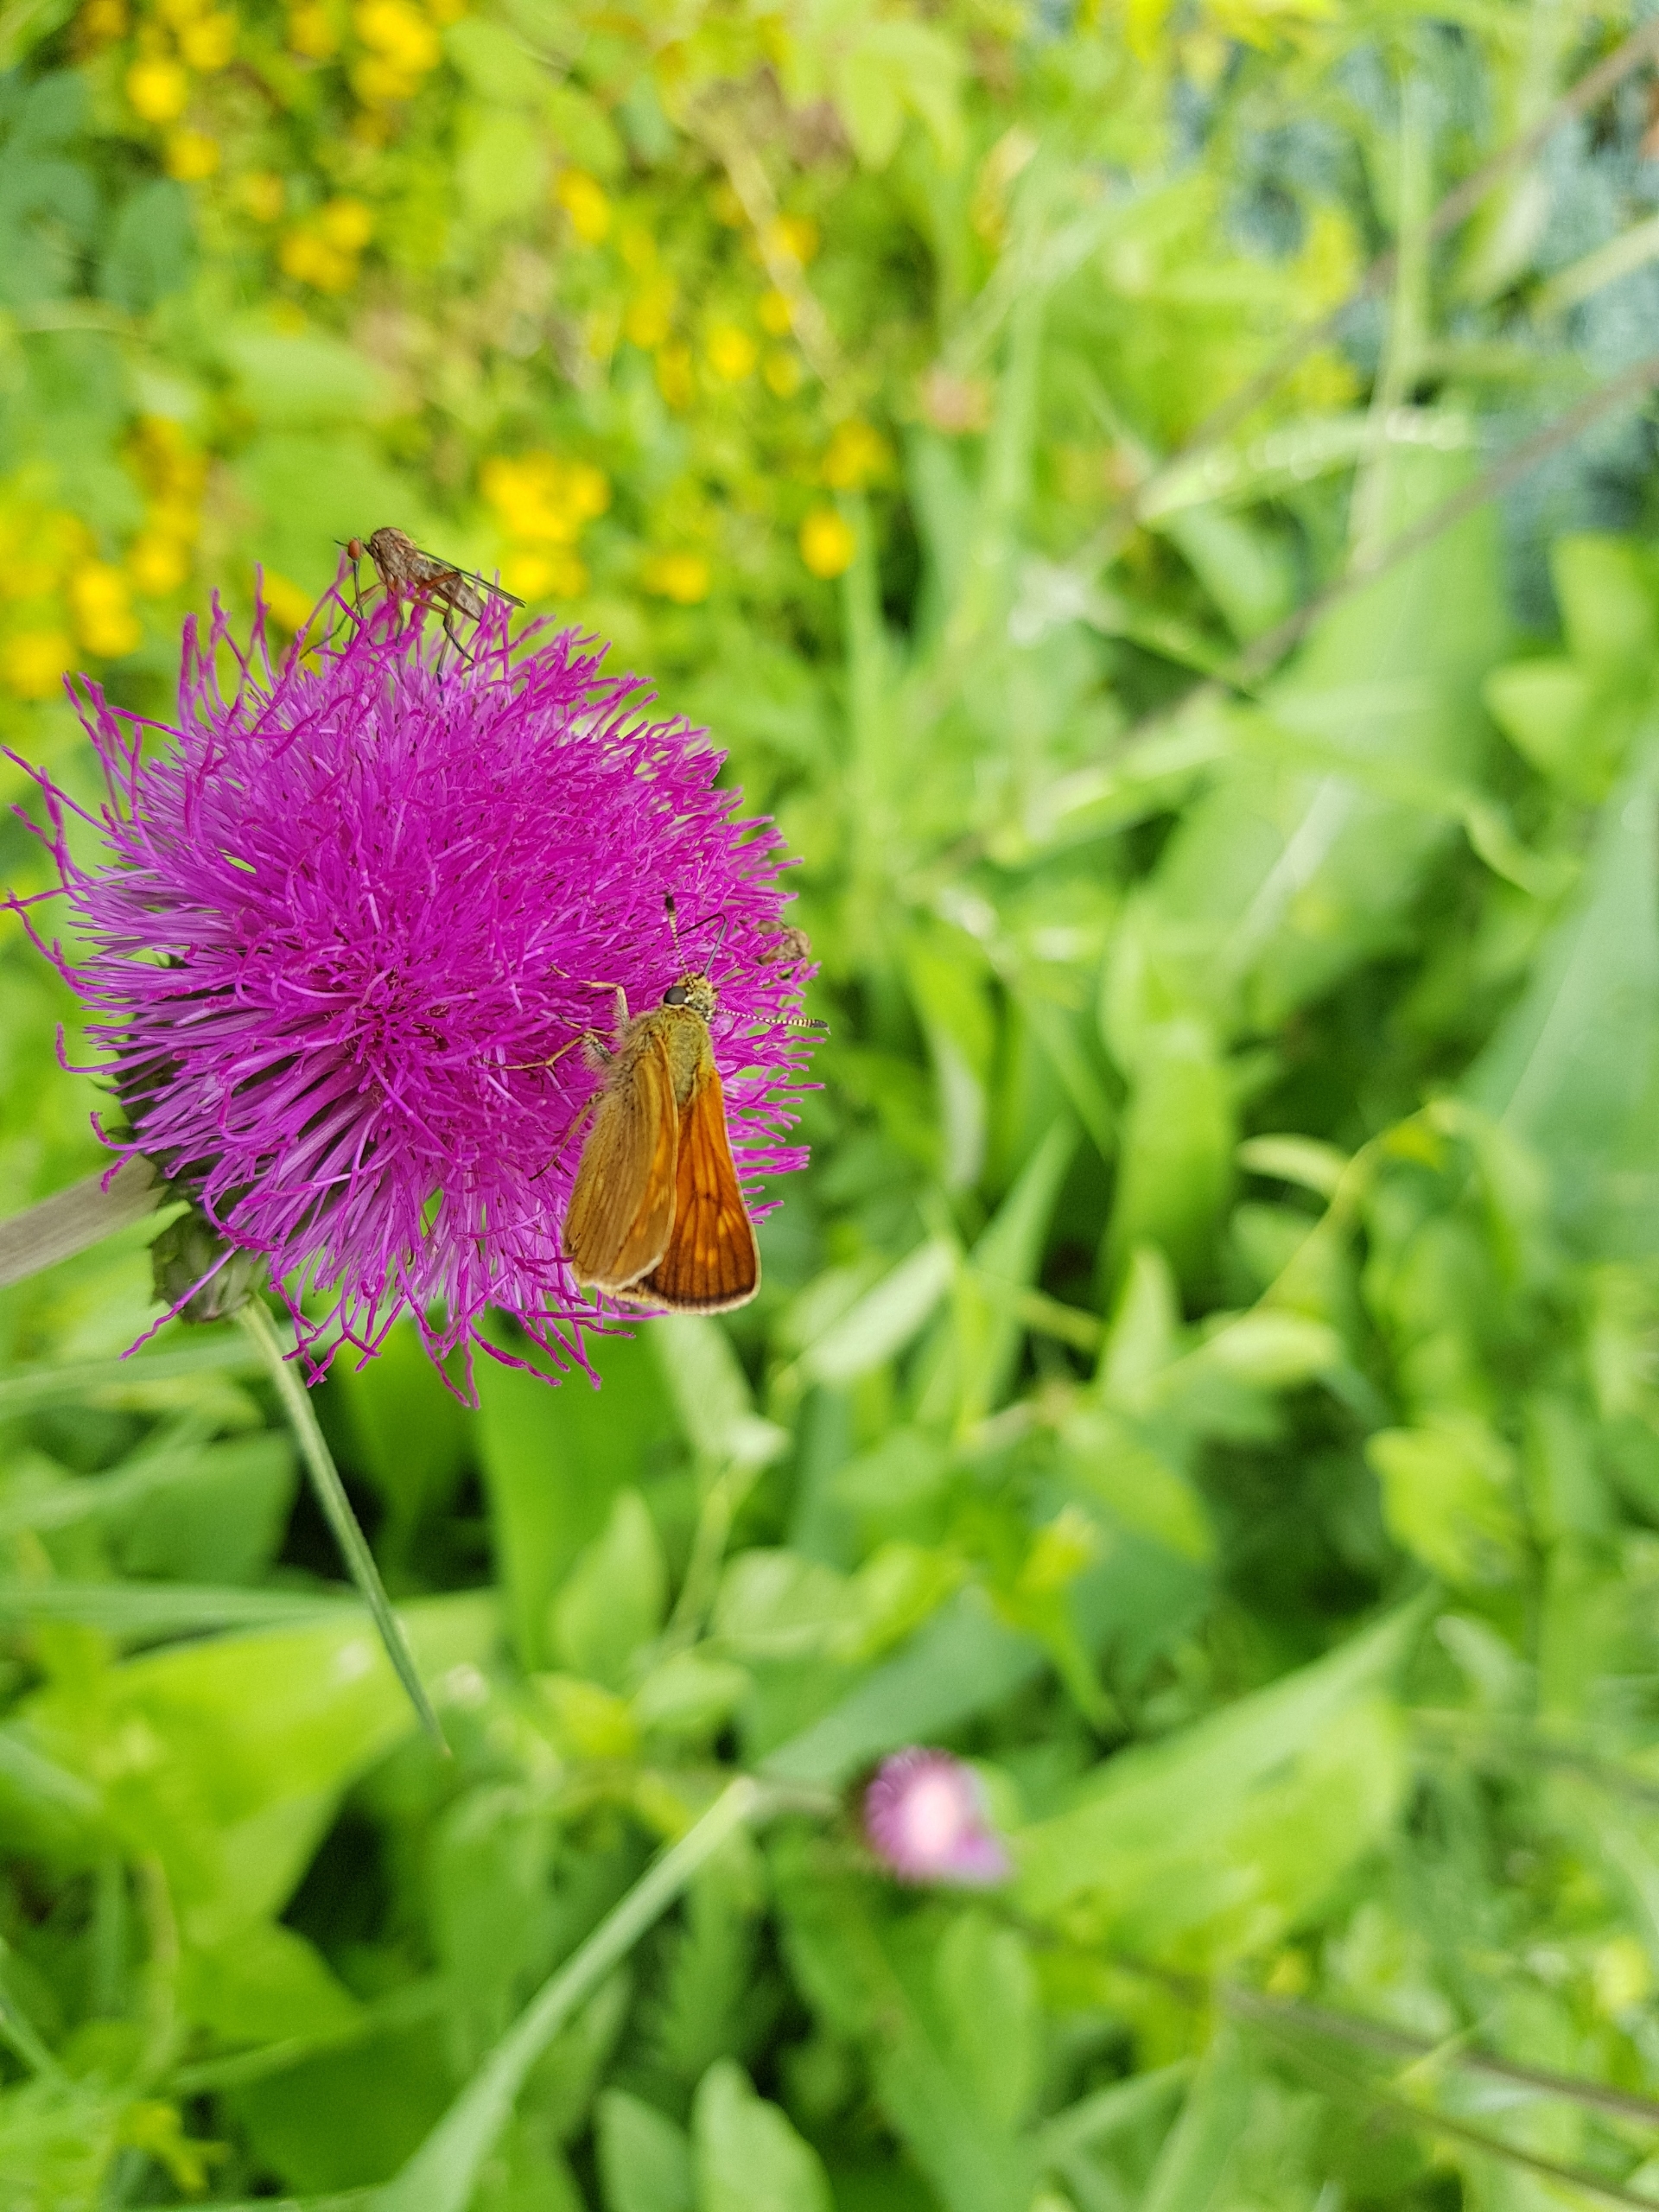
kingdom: Animalia
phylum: Arthropoda
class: Insecta
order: Lepidoptera
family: Hesperiidae
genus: Ochlodes
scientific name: Ochlodes venata
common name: Stor bredpande
